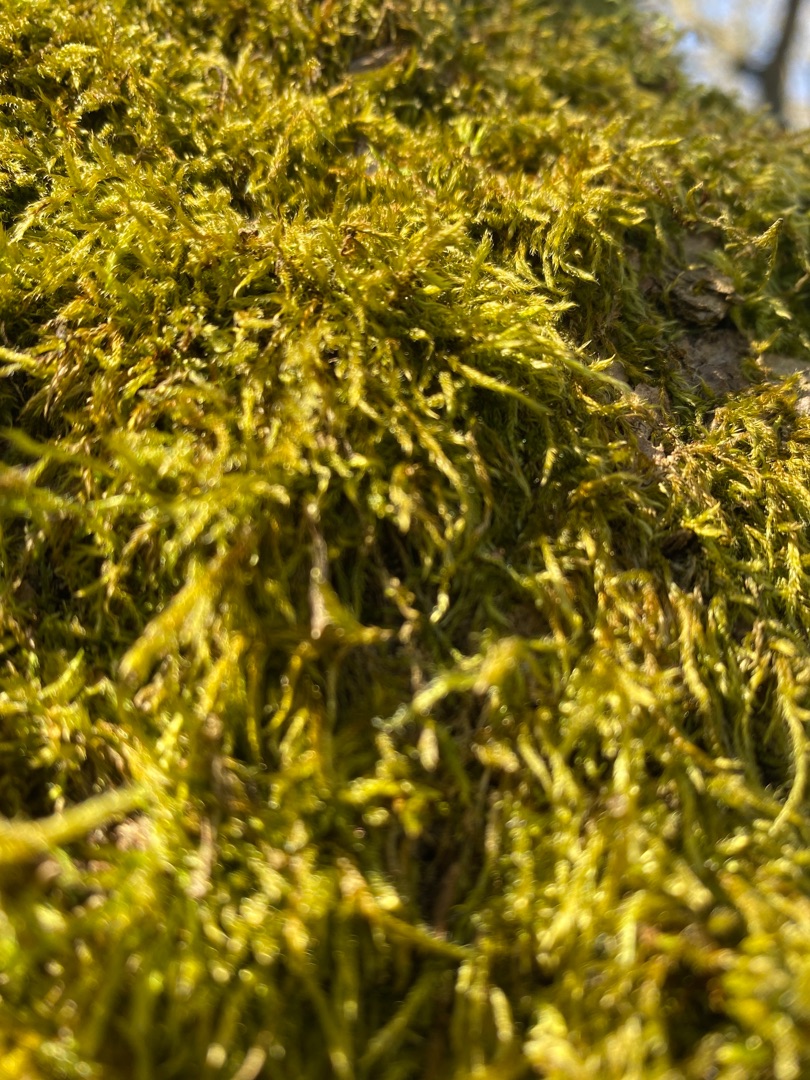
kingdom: Plantae
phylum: Bryophyta
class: Bryopsida
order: Hypnales
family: Hypnaceae
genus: Hypnum
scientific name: Hypnum
